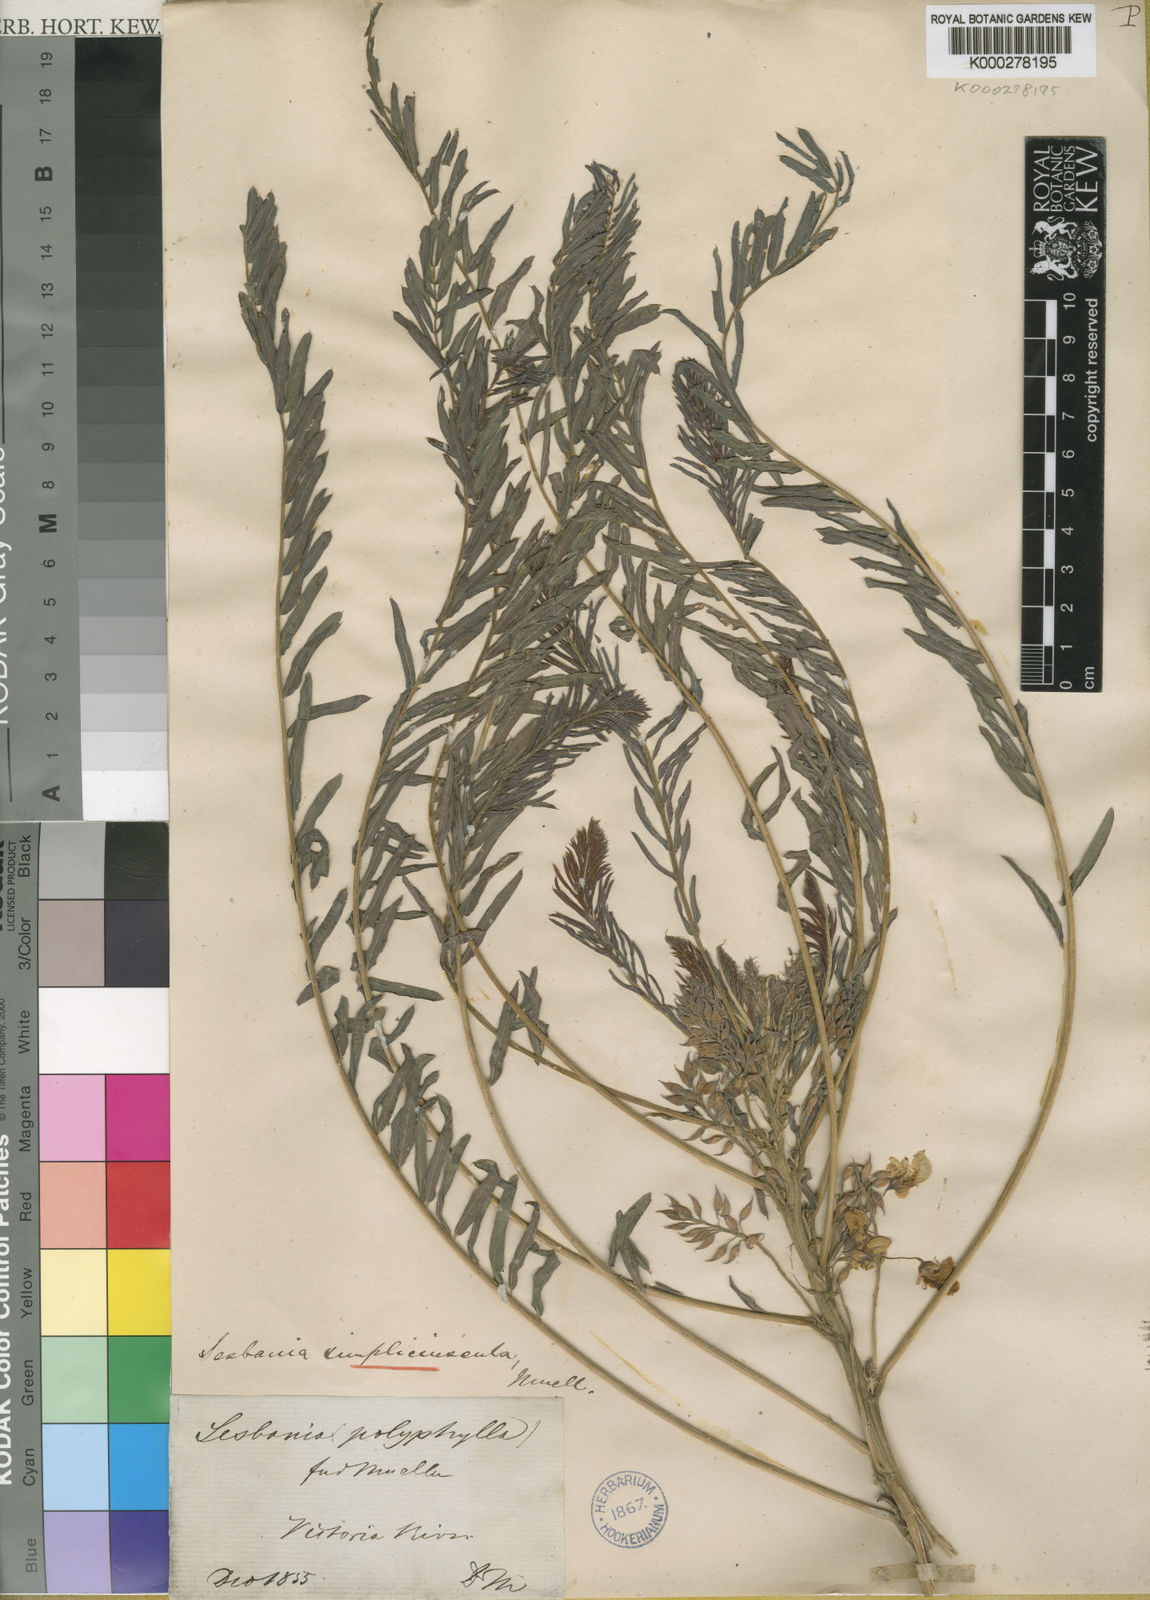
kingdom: Plantae
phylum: Tracheophyta
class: Magnoliopsida
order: Fabales
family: Fabaceae
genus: Sesbania
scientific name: Sesbania simpliciuscula
